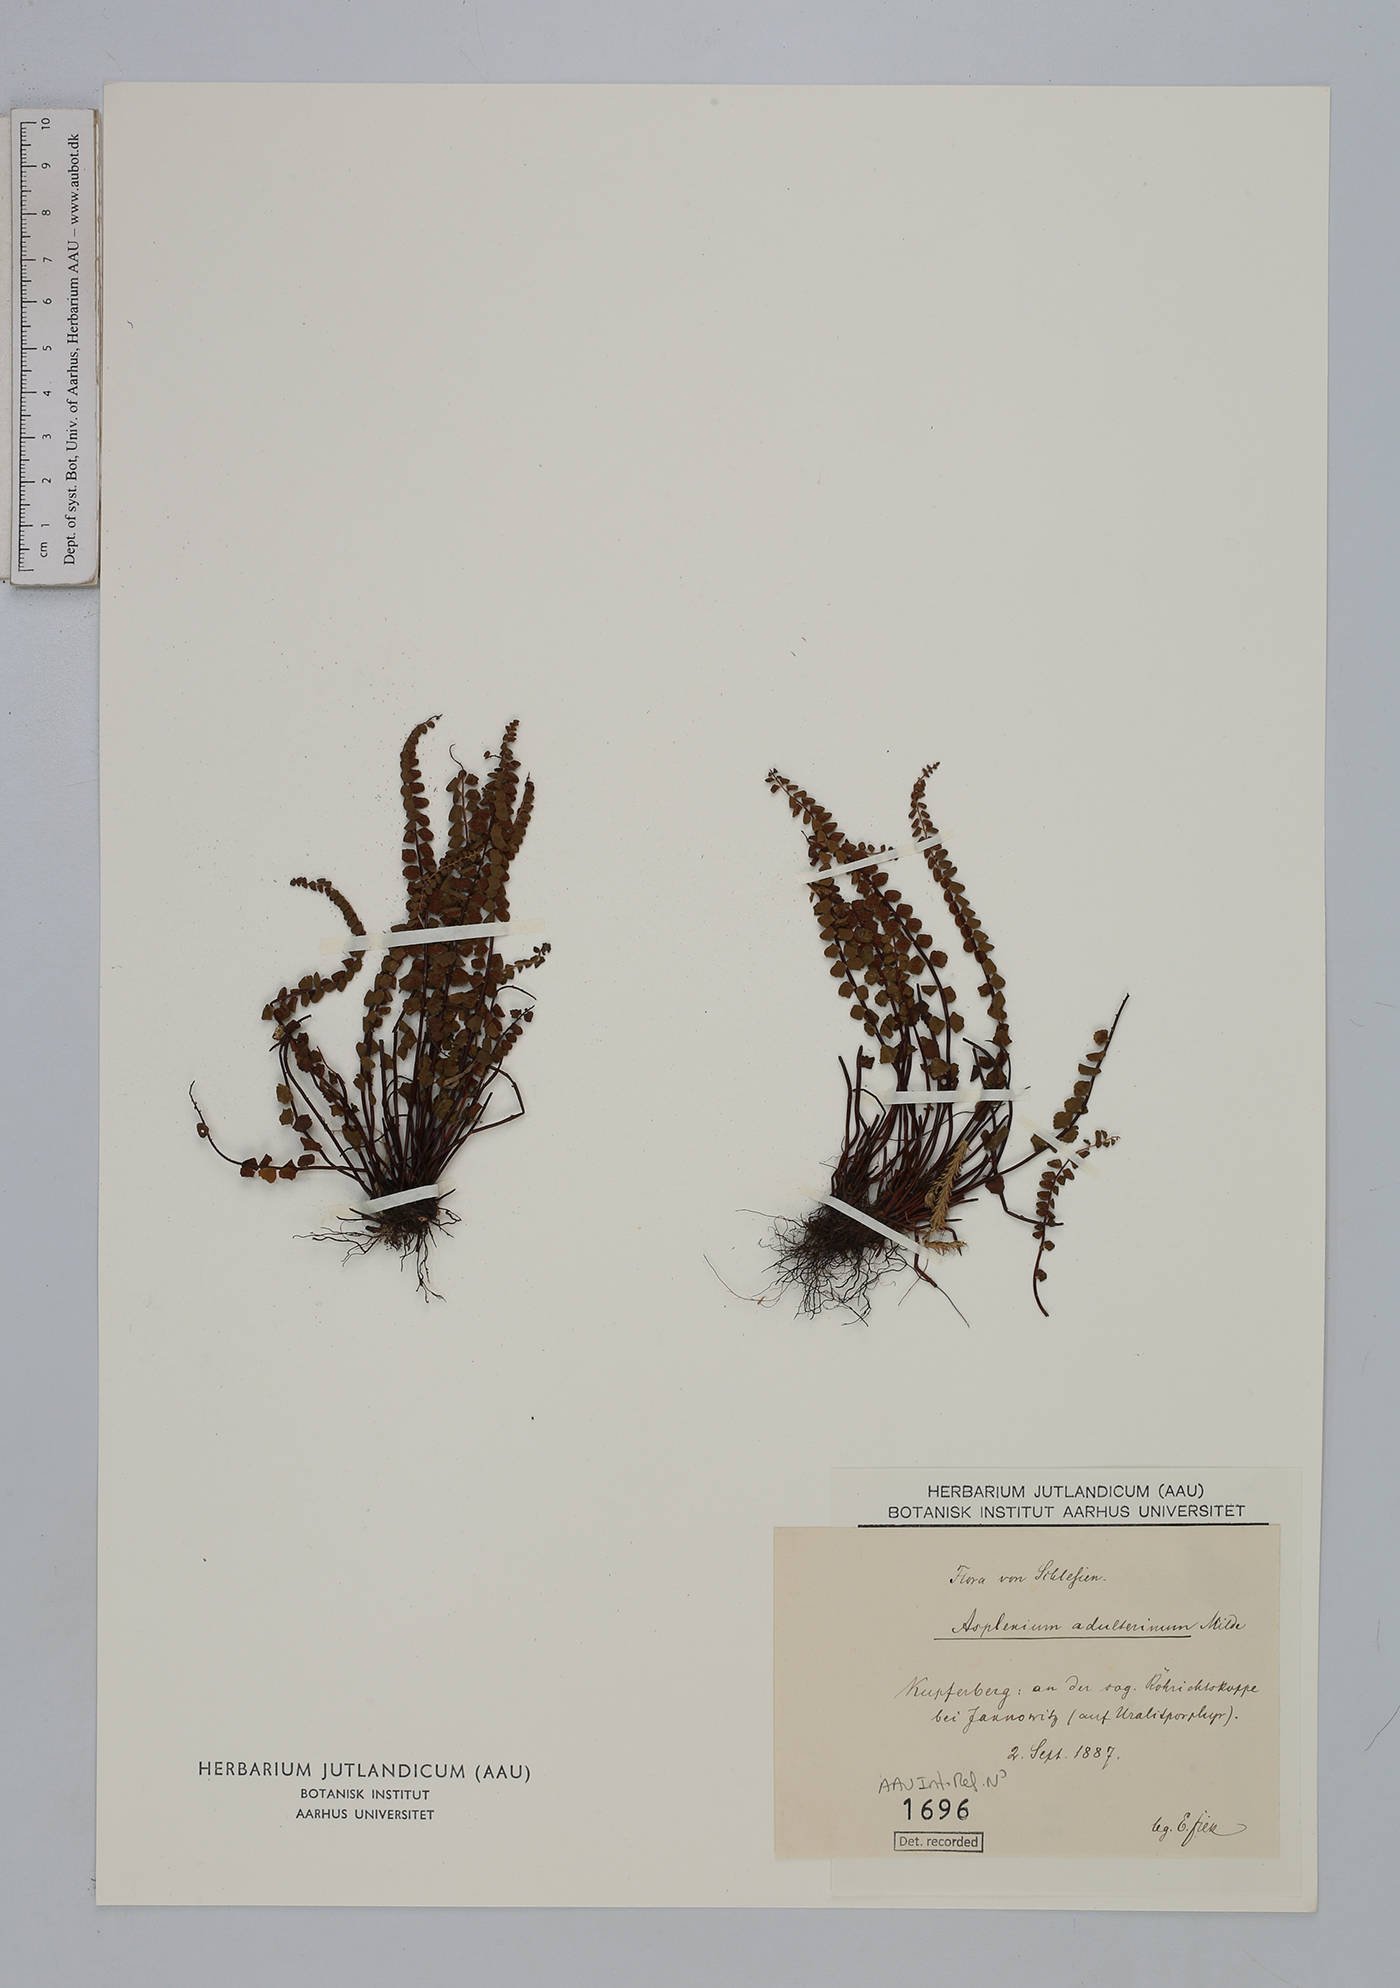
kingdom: Plantae
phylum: Tracheophyta
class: Polypodiopsida
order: Polypodiales
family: Aspleniaceae
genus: Asplenium
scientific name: Asplenium adulterinum
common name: Adulterated spleenwort
